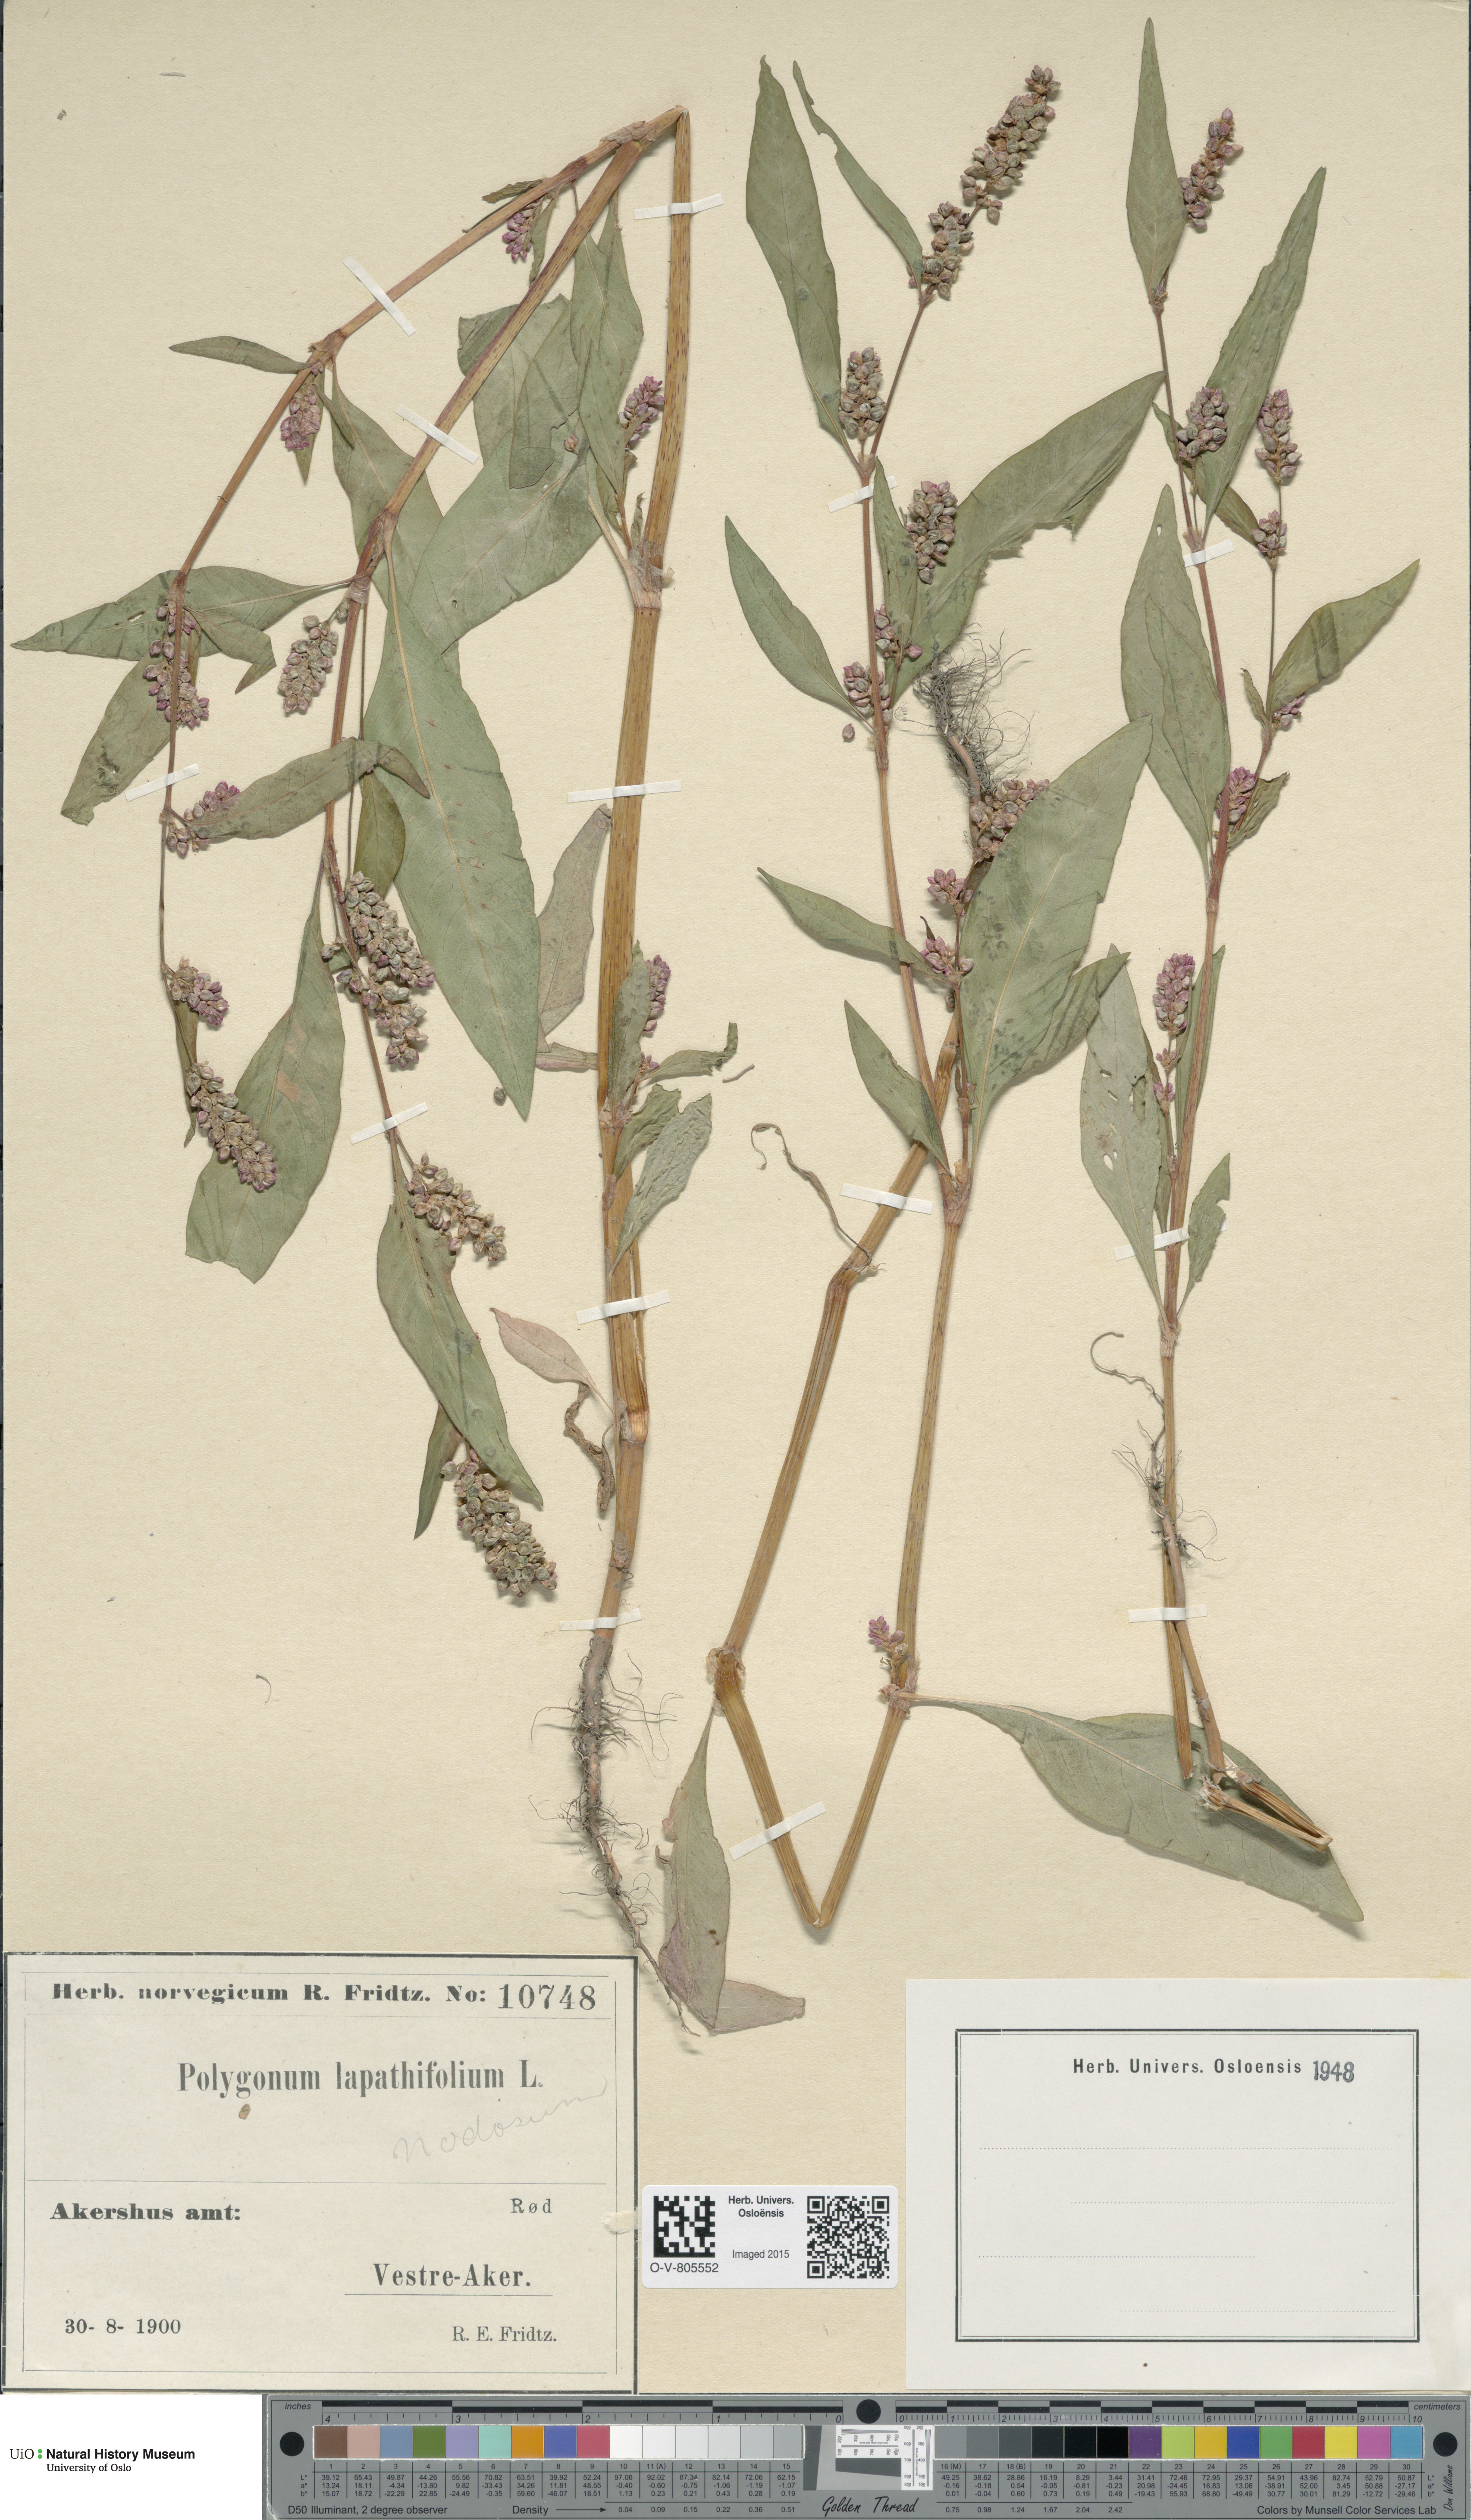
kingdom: Plantae
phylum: Tracheophyta
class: Magnoliopsida
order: Caryophyllales
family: Polygonaceae
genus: Persicaria
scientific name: Persicaria lapathifolia
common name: Curlytop knotweed
